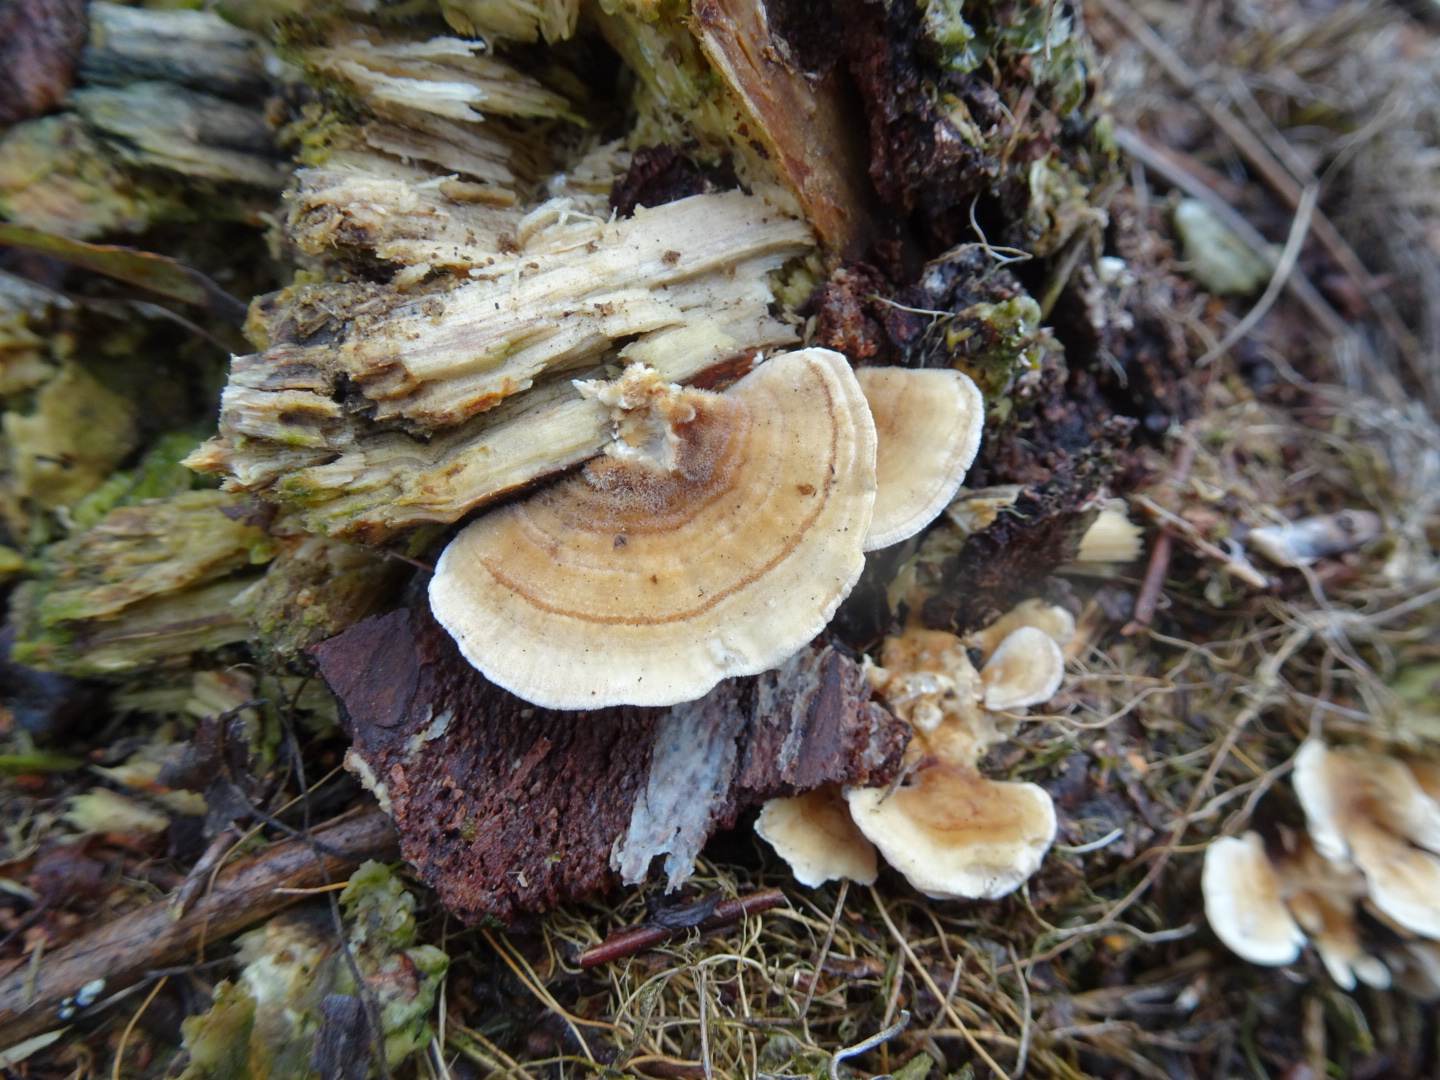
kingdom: Fungi
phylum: Basidiomycota
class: Agaricomycetes
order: Polyporales
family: Polyporaceae
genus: Trametes
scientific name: Trametes versicolor
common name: broget læderporesvamp
